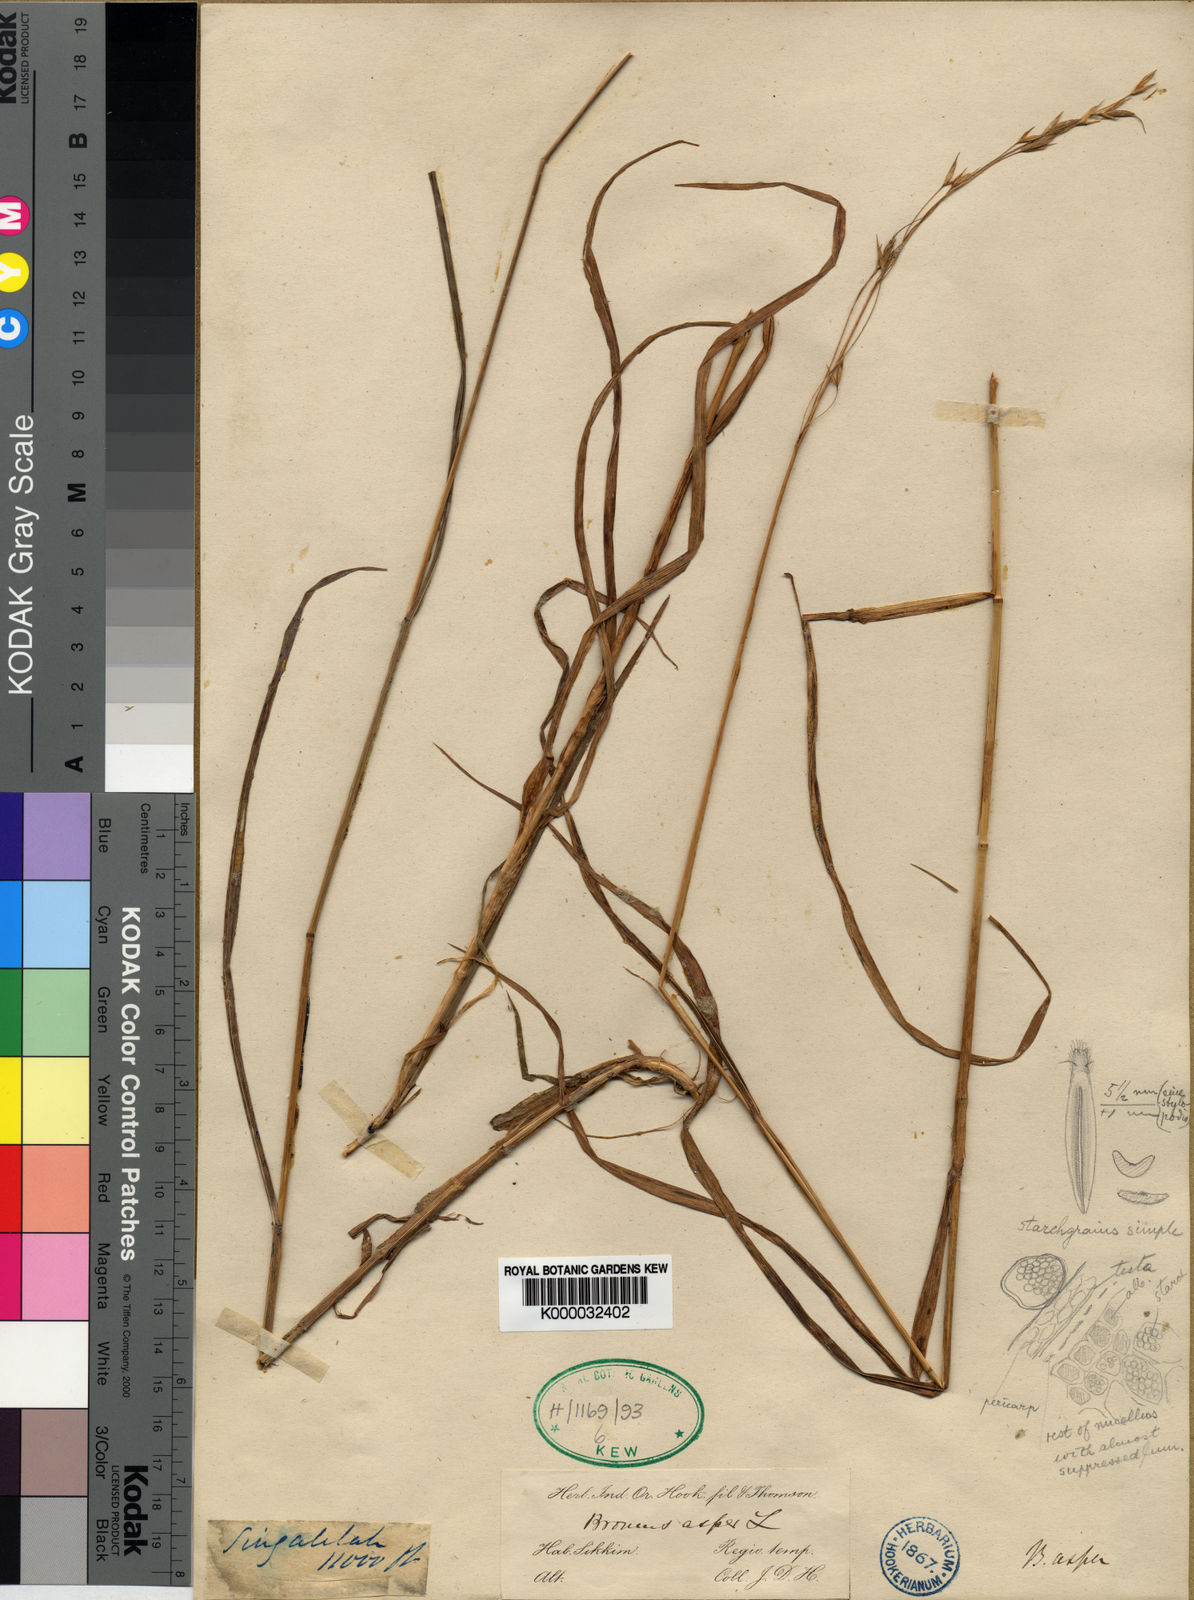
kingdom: Plantae
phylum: Tracheophyta
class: Liliopsida
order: Poales
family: Poaceae
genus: Bromus
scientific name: Bromus himalaicus
